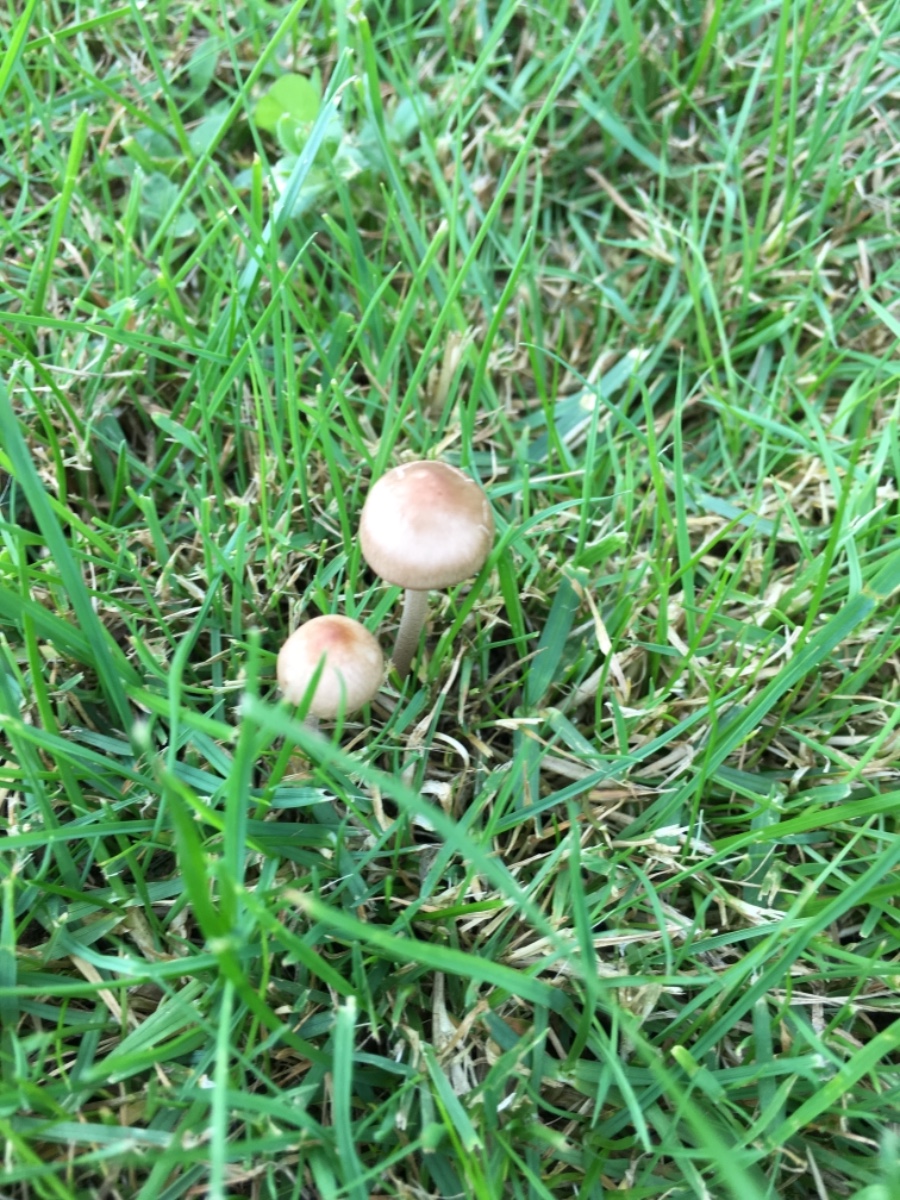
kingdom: Fungi
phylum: Basidiomycota
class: Agaricomycetes
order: Agaricales
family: Bolbitiaceae
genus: Panaeolina
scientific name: Panaeolina foenisecii
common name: høslætsvamp
